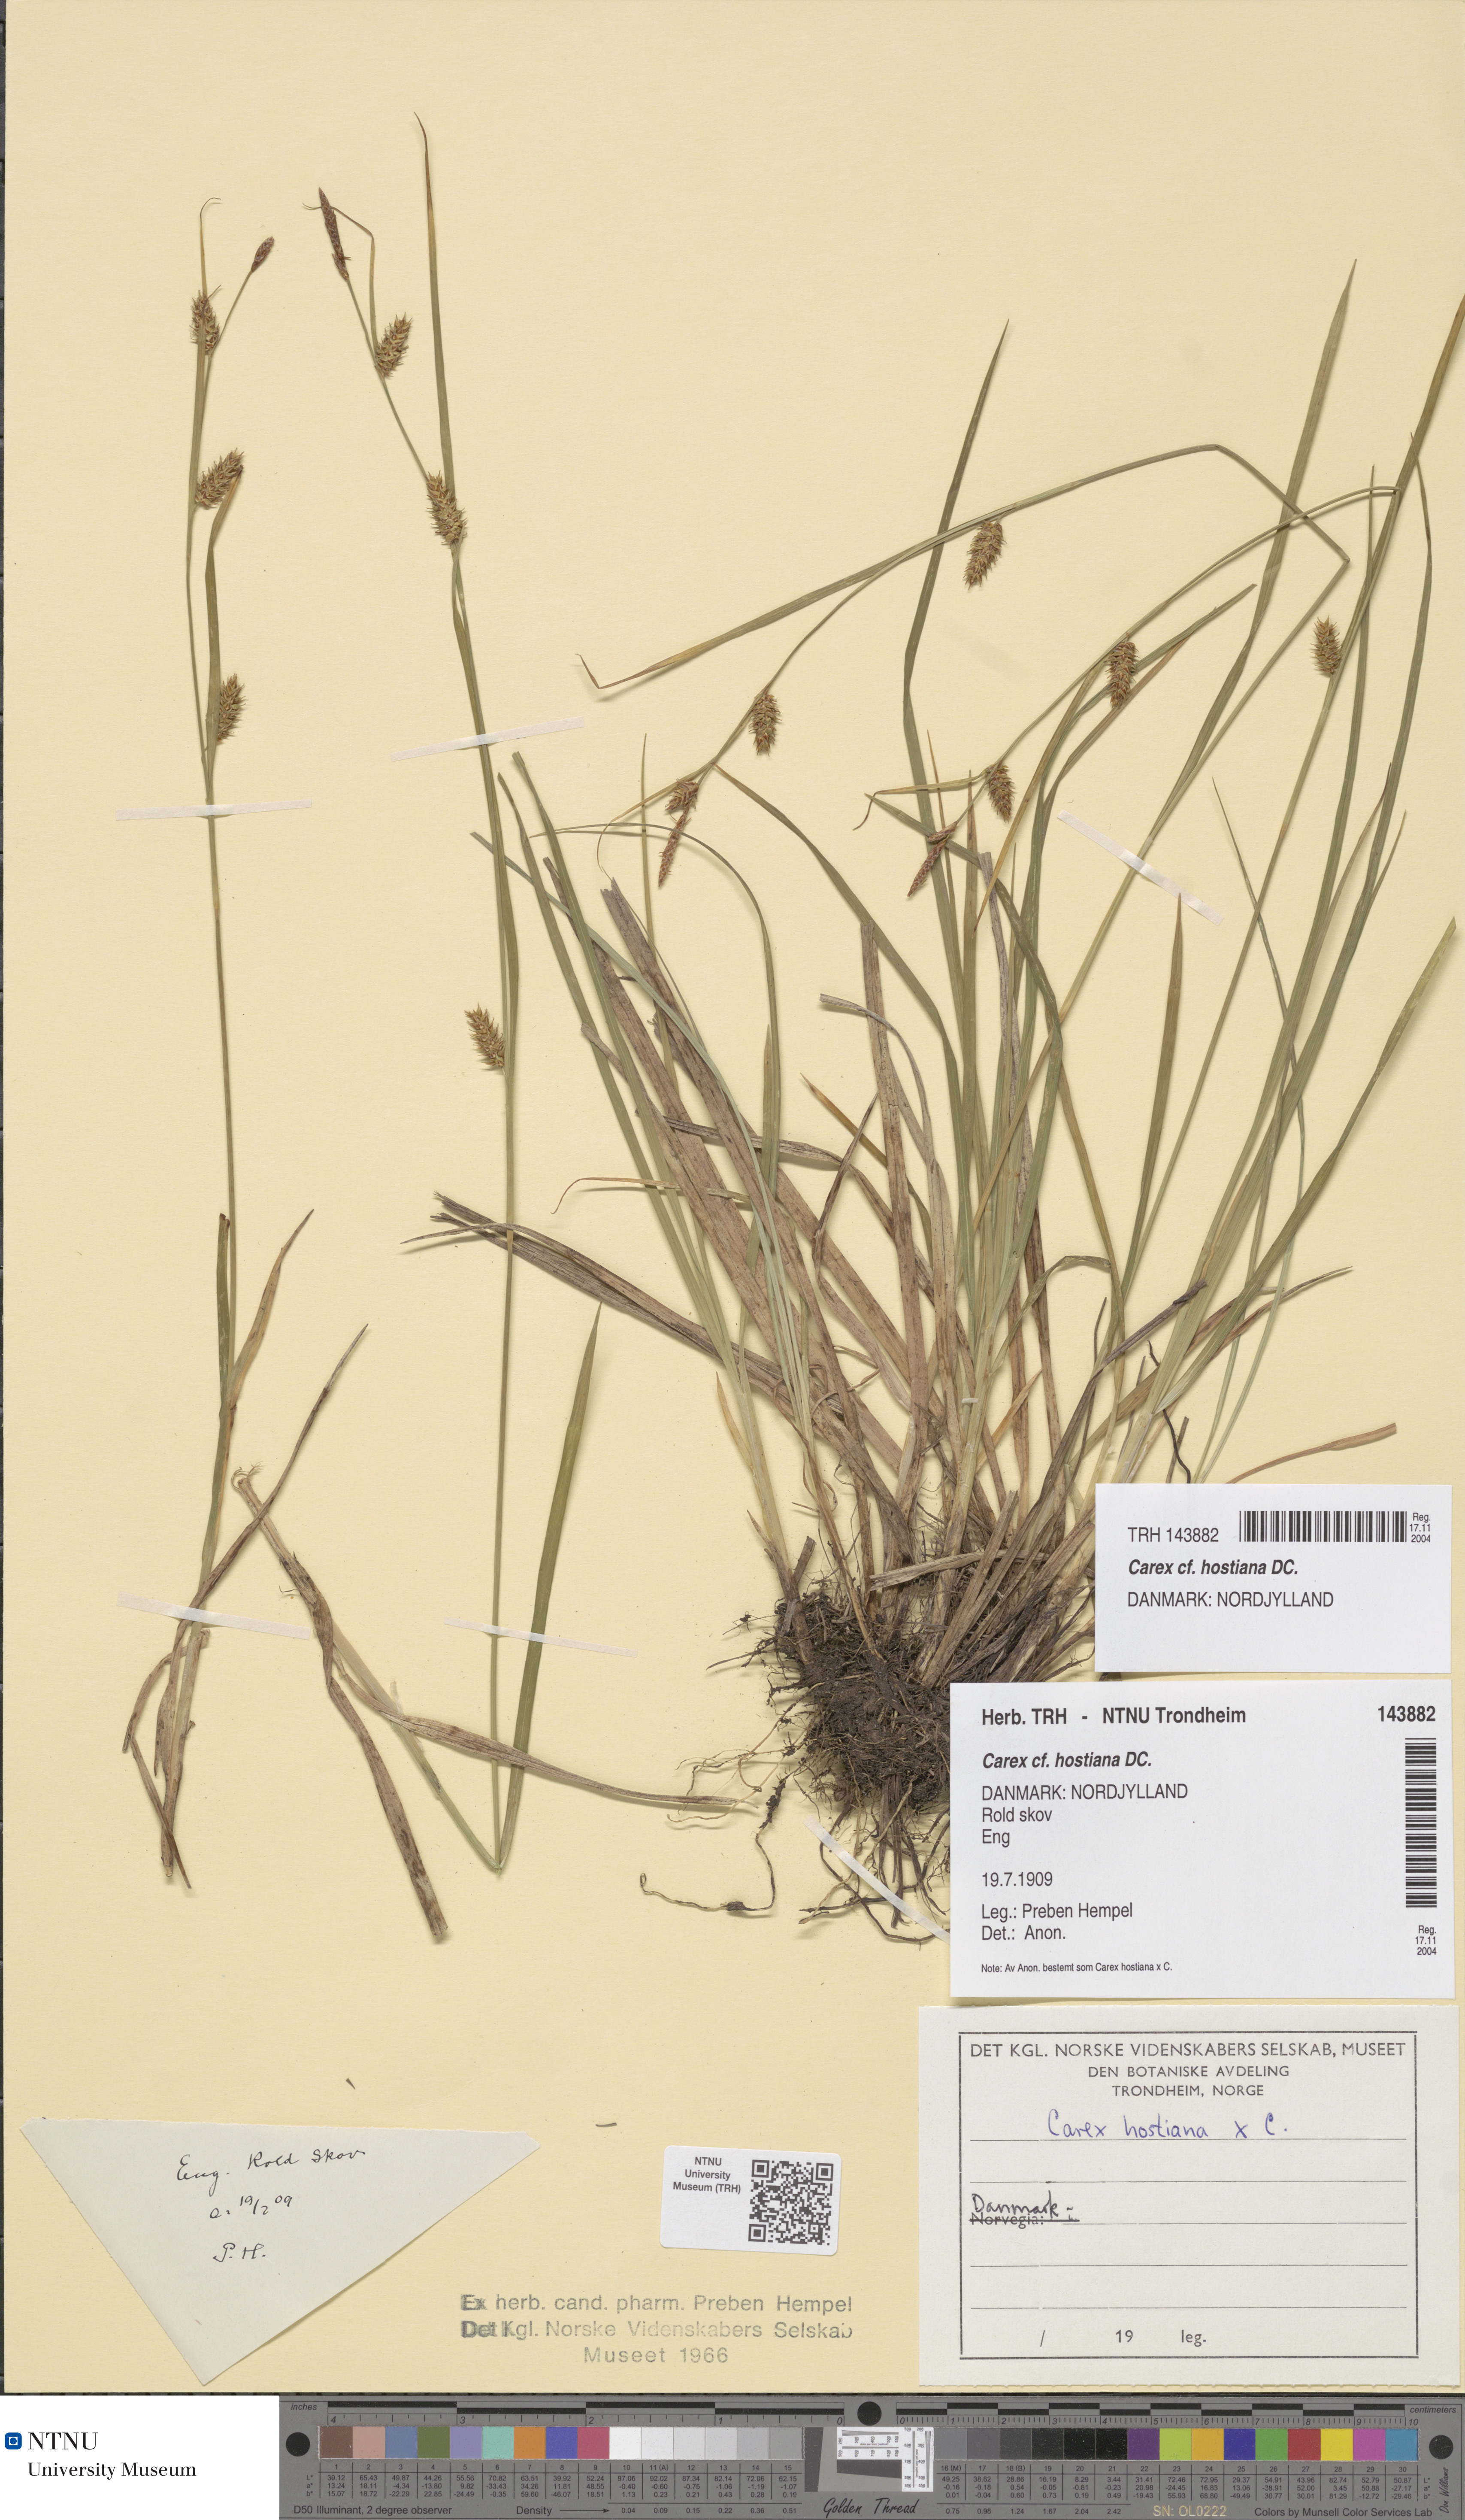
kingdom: Plantae
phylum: Tracheophyta
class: Liliopsida
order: Poales
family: Cyperaceae
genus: Carex
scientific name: Carex hostiana
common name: Tawny sedge
